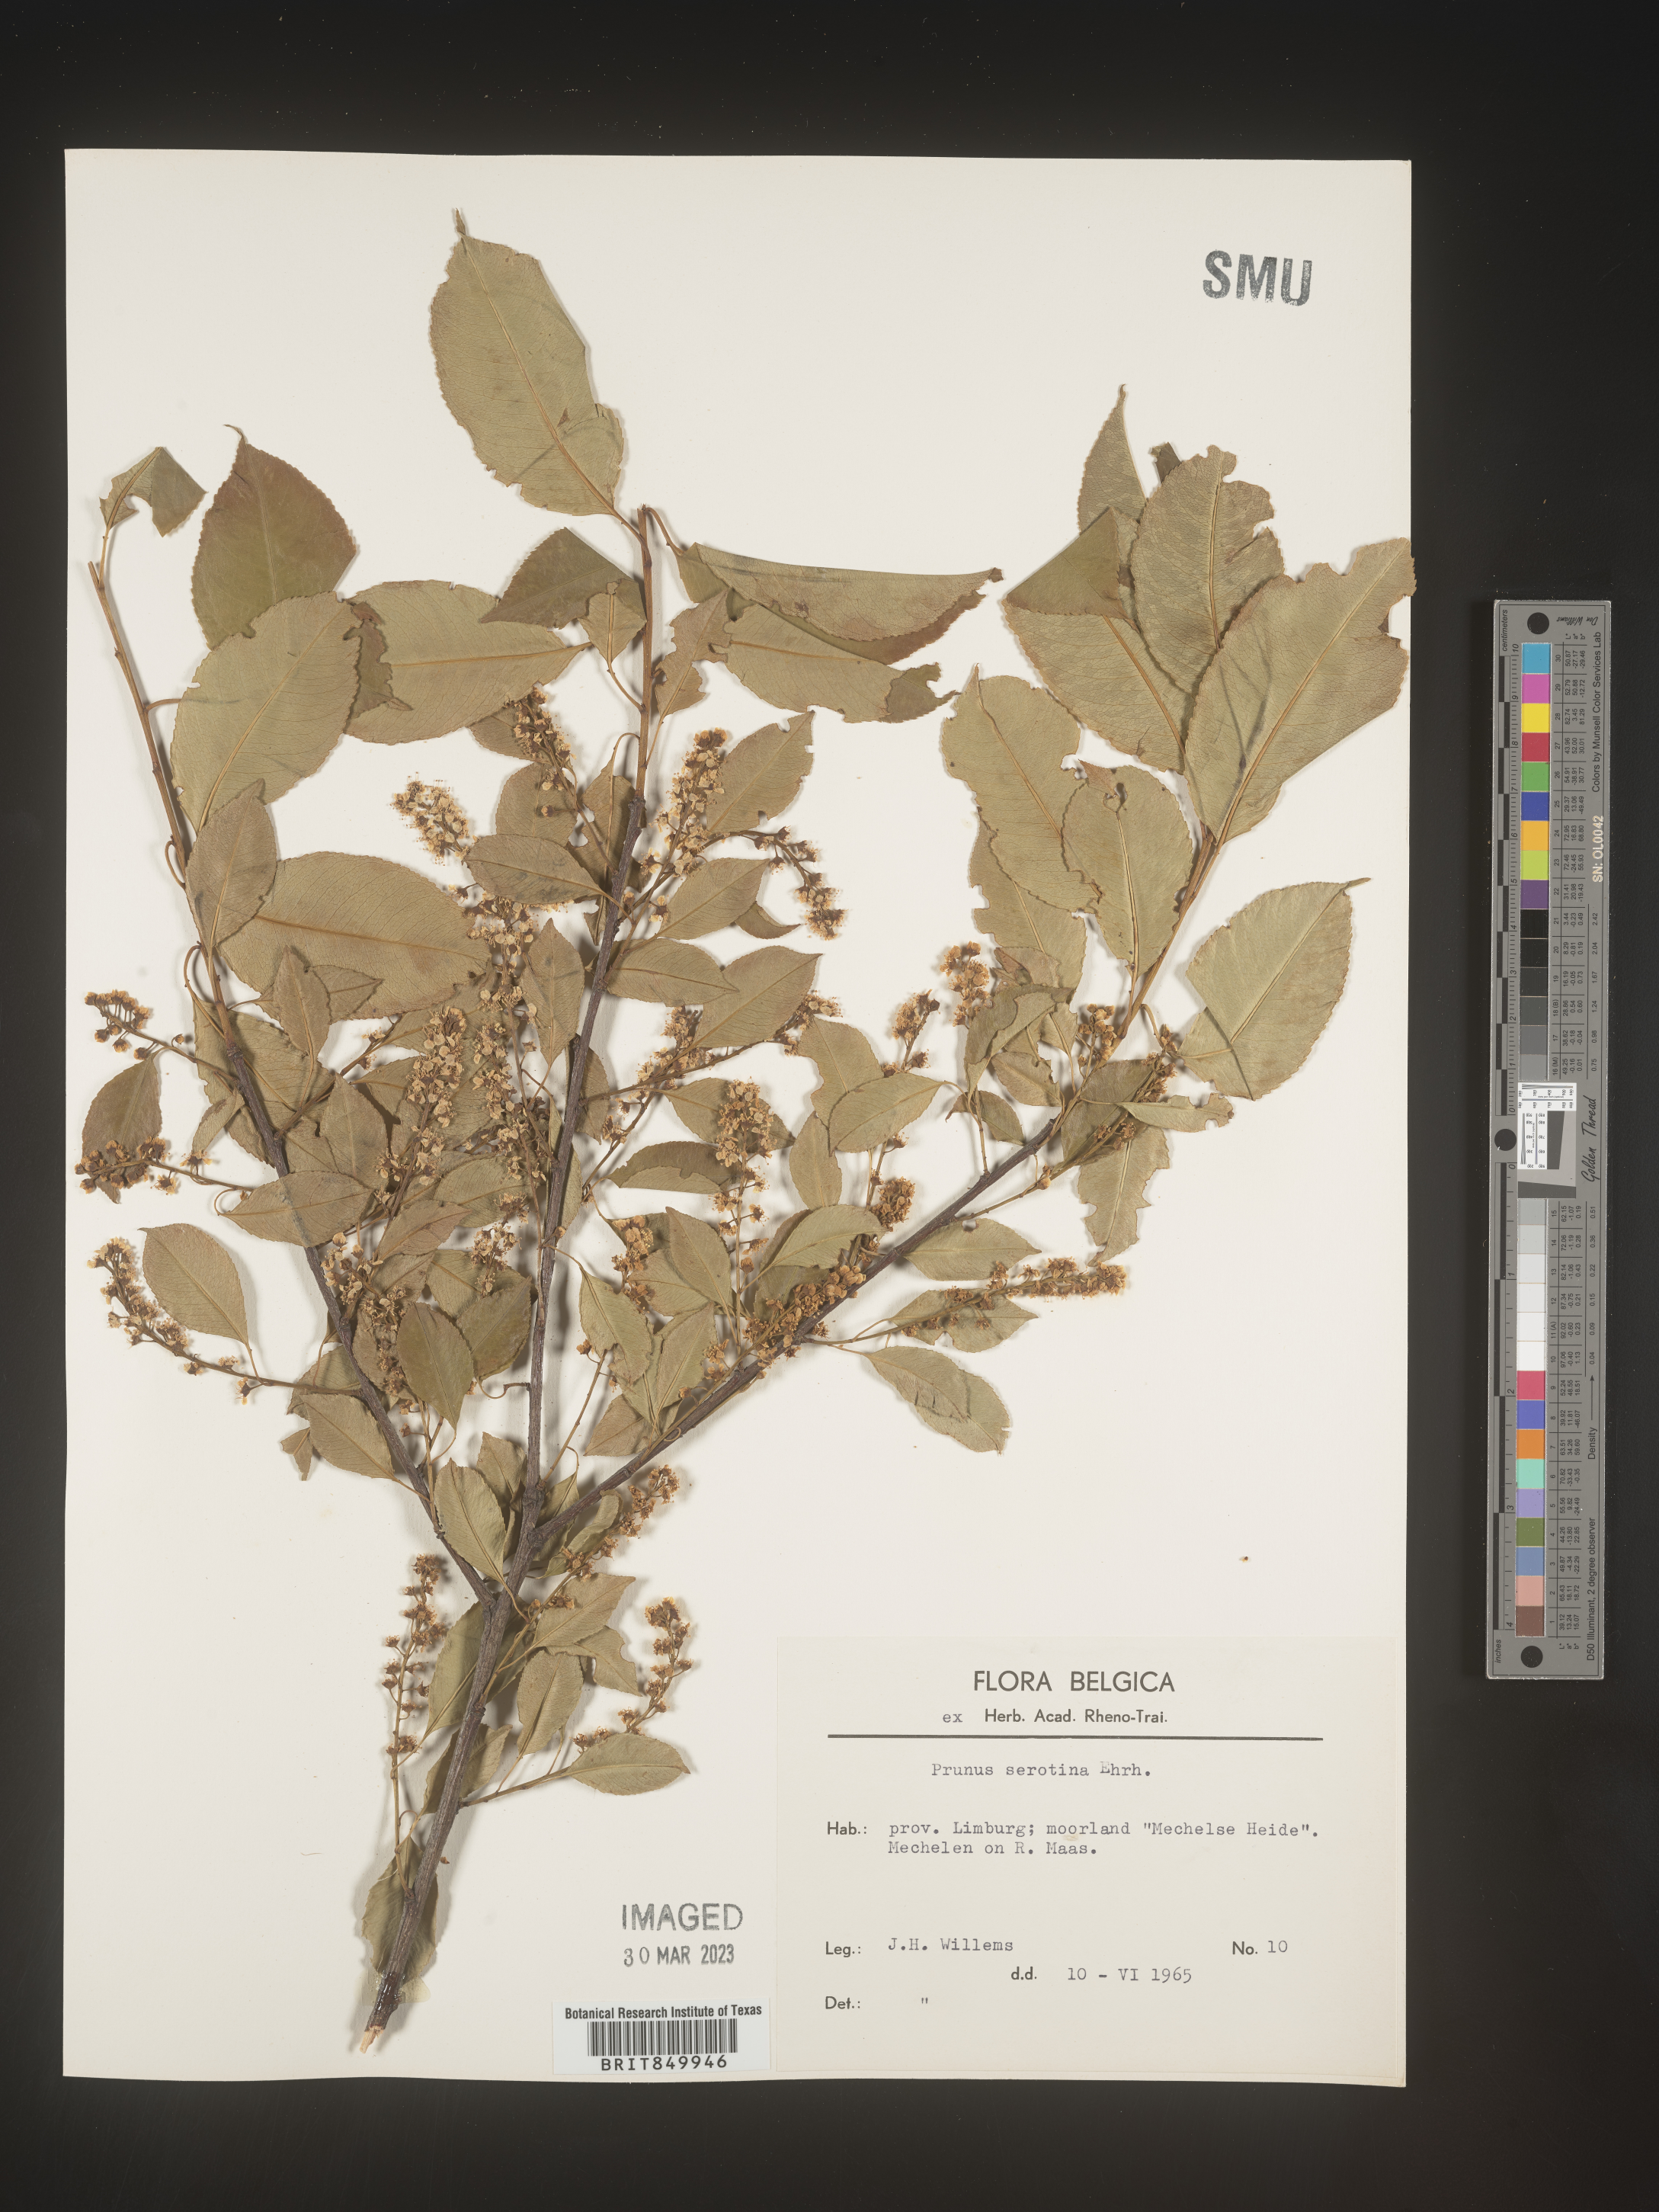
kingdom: Plantae
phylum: Tracheophyta
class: Magnoliopsida
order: Rosales
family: Rosaceae
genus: Prunus
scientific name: Prunus
